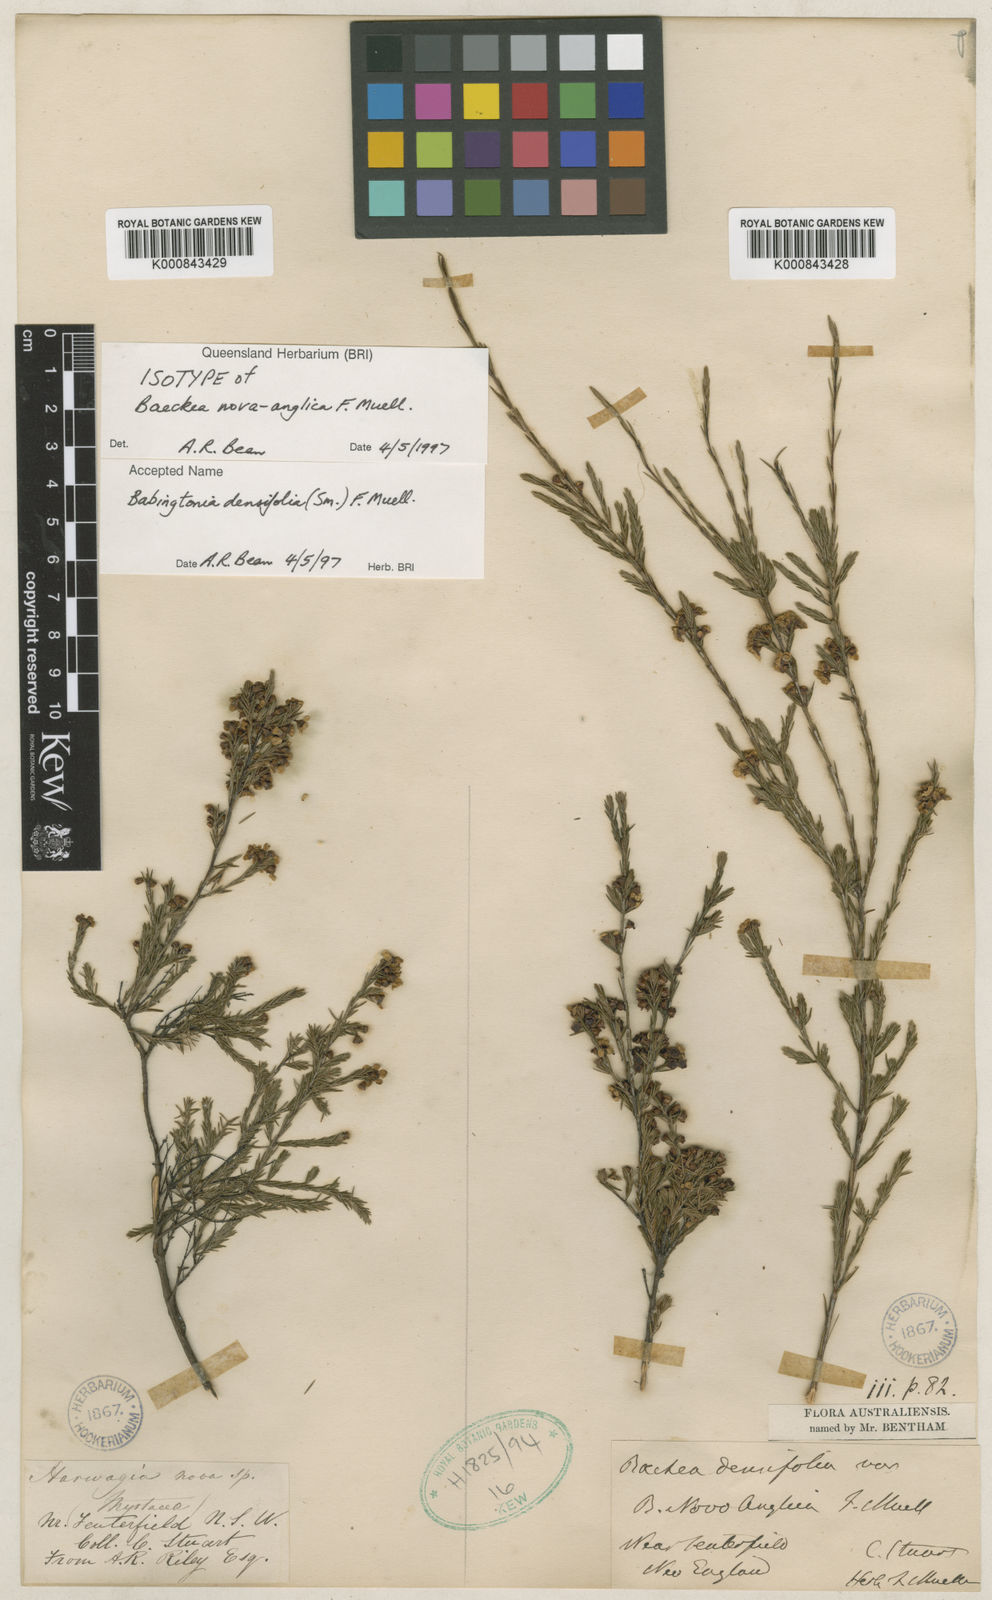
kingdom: Plantae
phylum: Tracheophyta
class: Magnoliopsida
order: Myrtales
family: Myrtaceae
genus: Harmogia
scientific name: Harmogia densifolia
